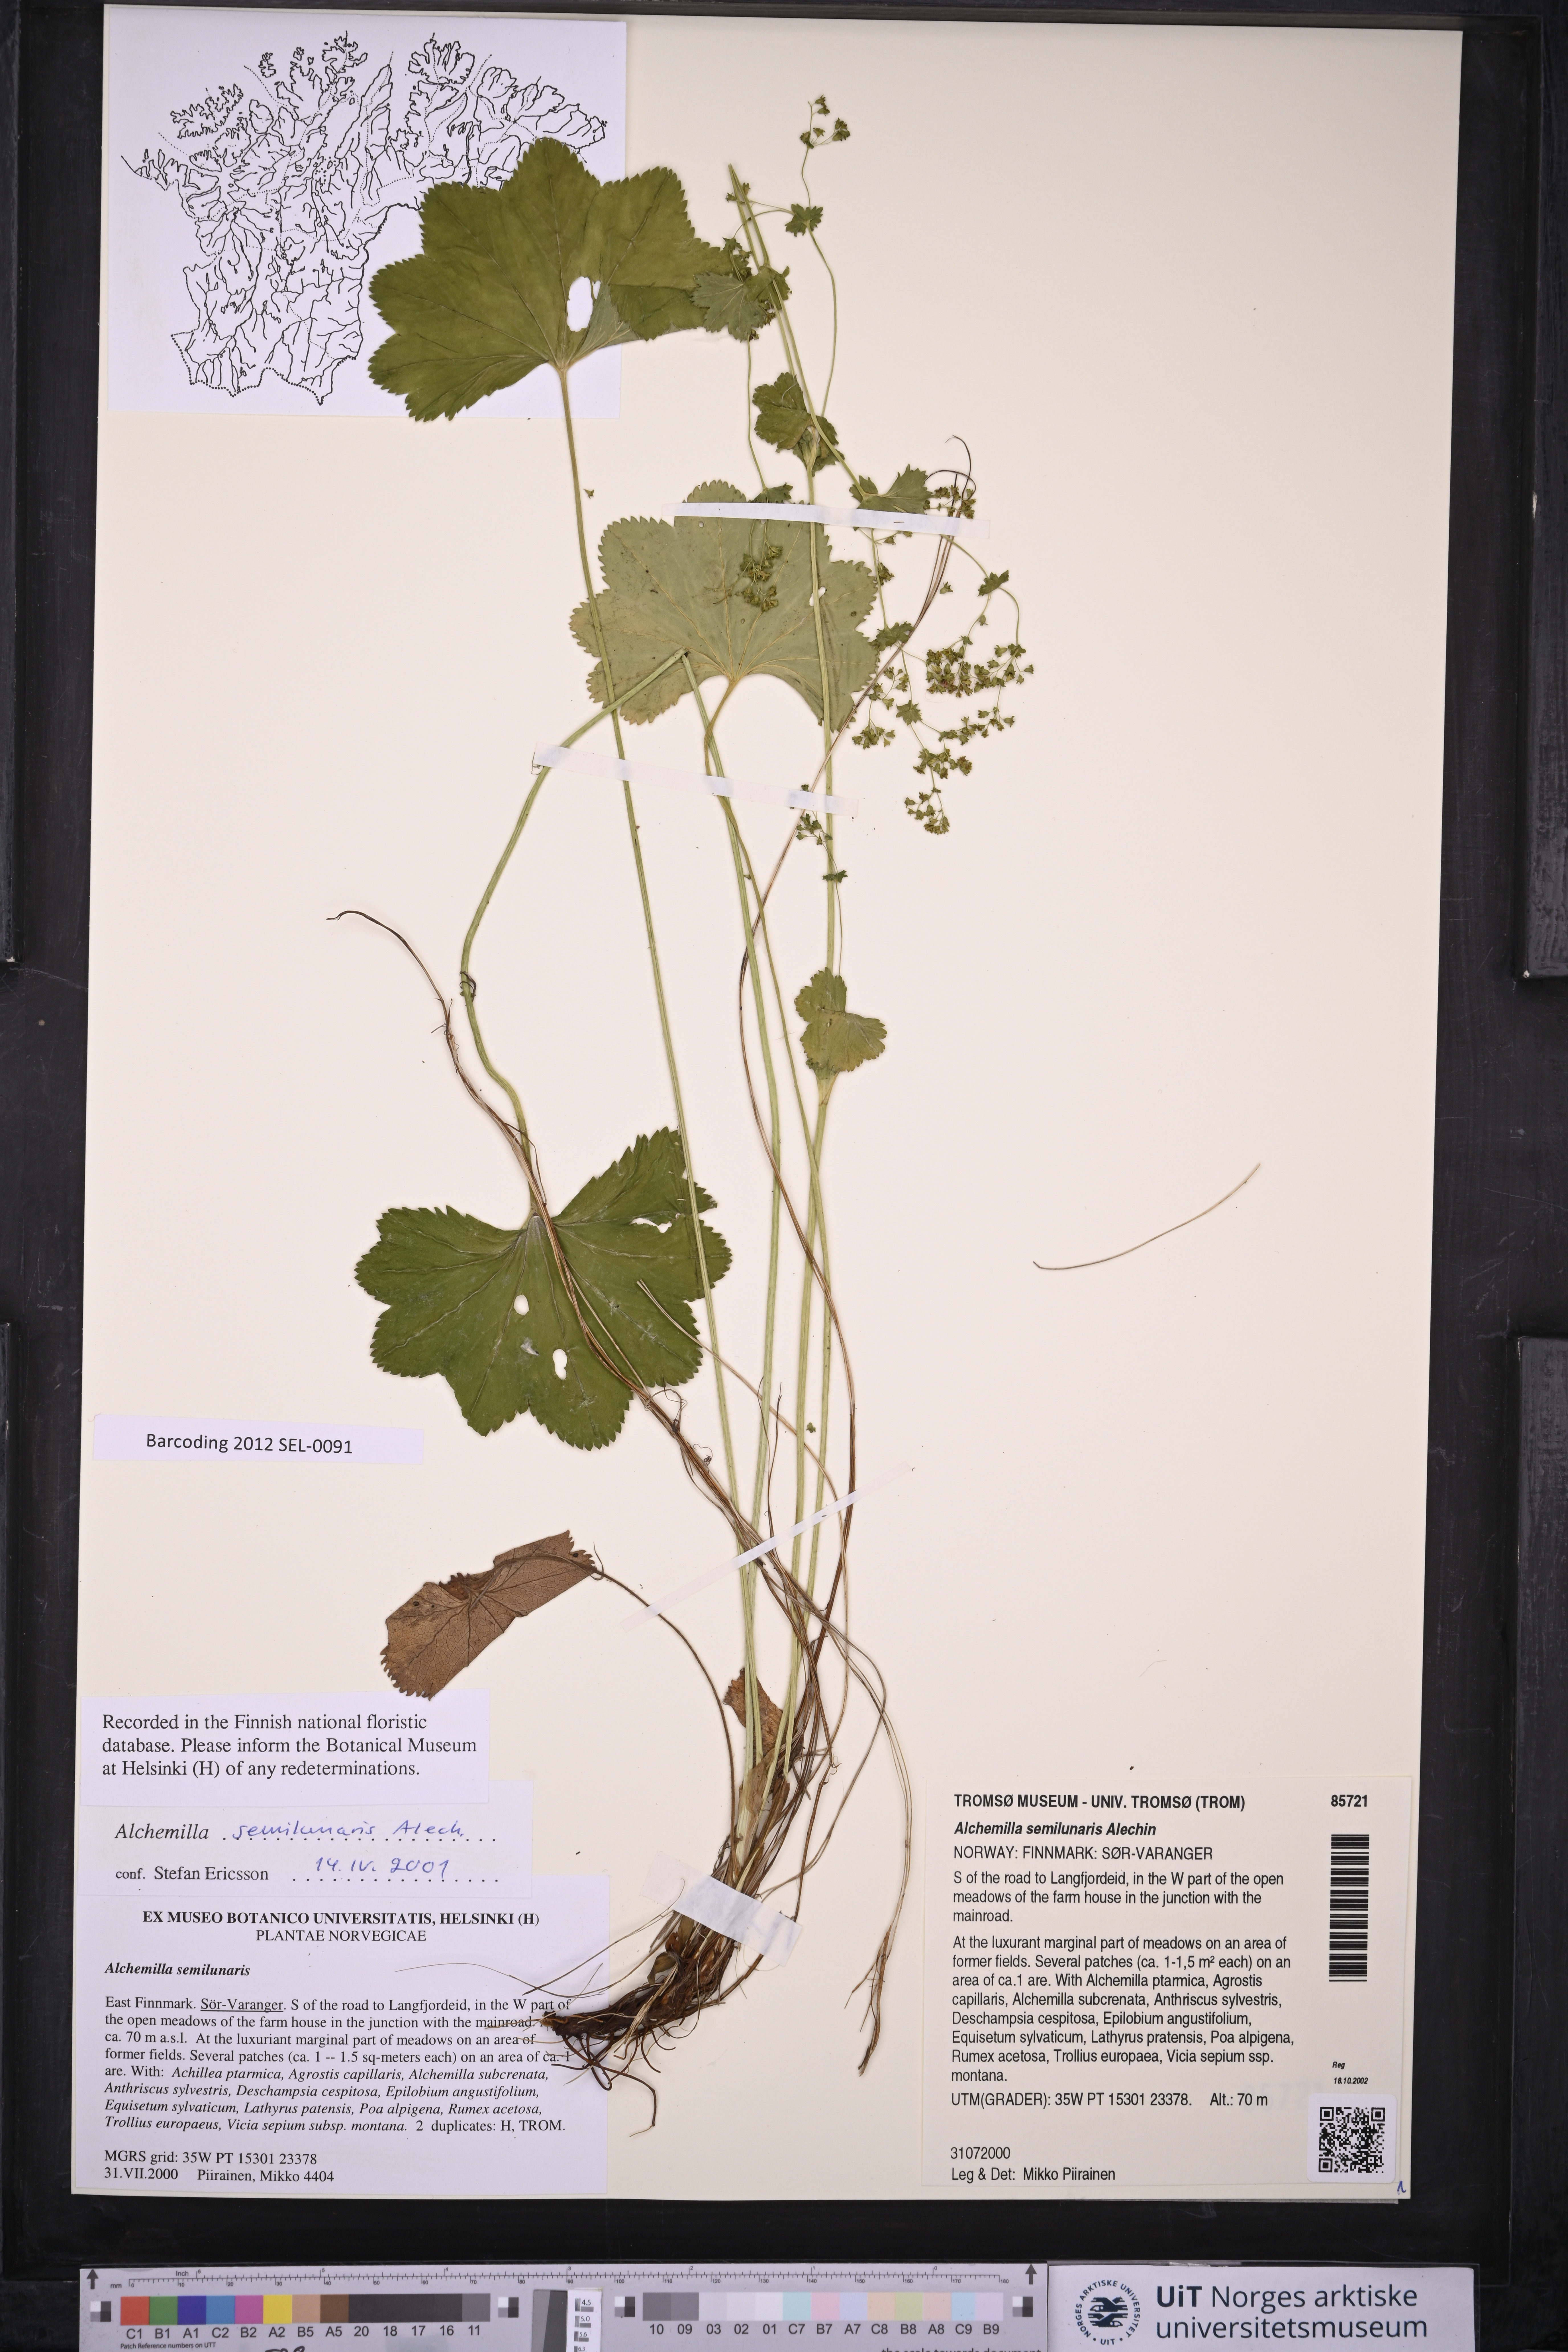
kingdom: Plantae
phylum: Tracheophyta
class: Magnoliopsida
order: Rosales
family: Rosaceae
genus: Alchemilla
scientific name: Alchemilla semilunaris
